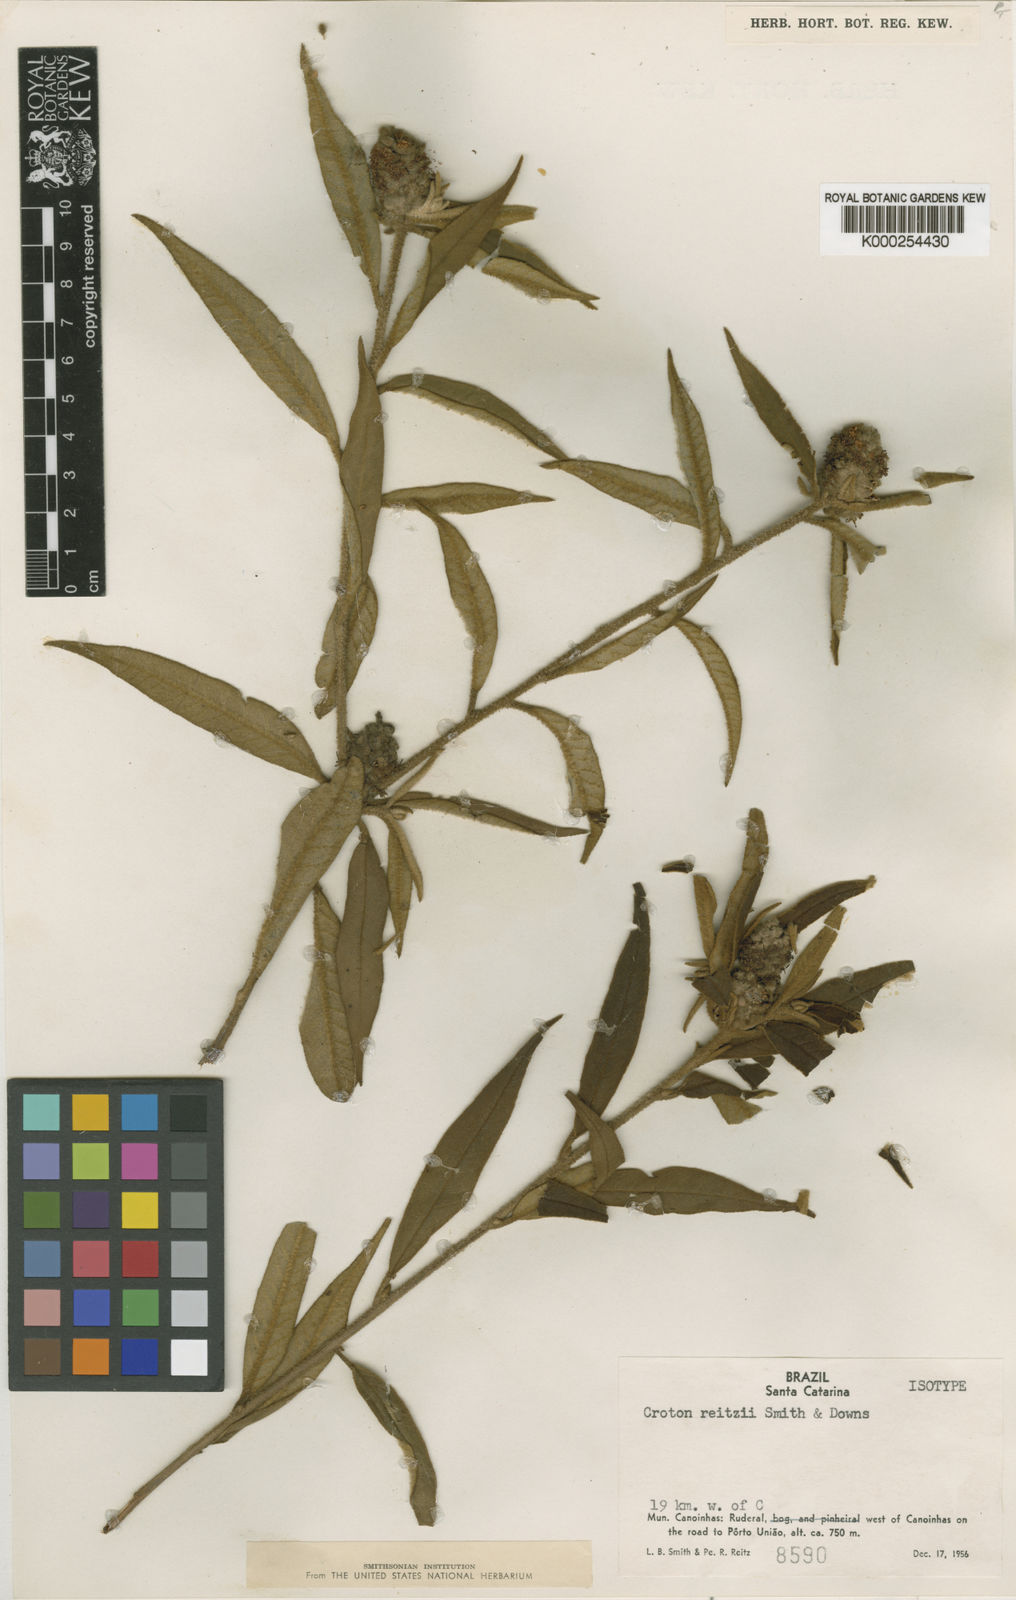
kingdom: Plantae
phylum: Tracheophyta
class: Magnoliopsida
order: Malpighiales
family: Euphorbiaceae
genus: Croton
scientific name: Croton reitzii
